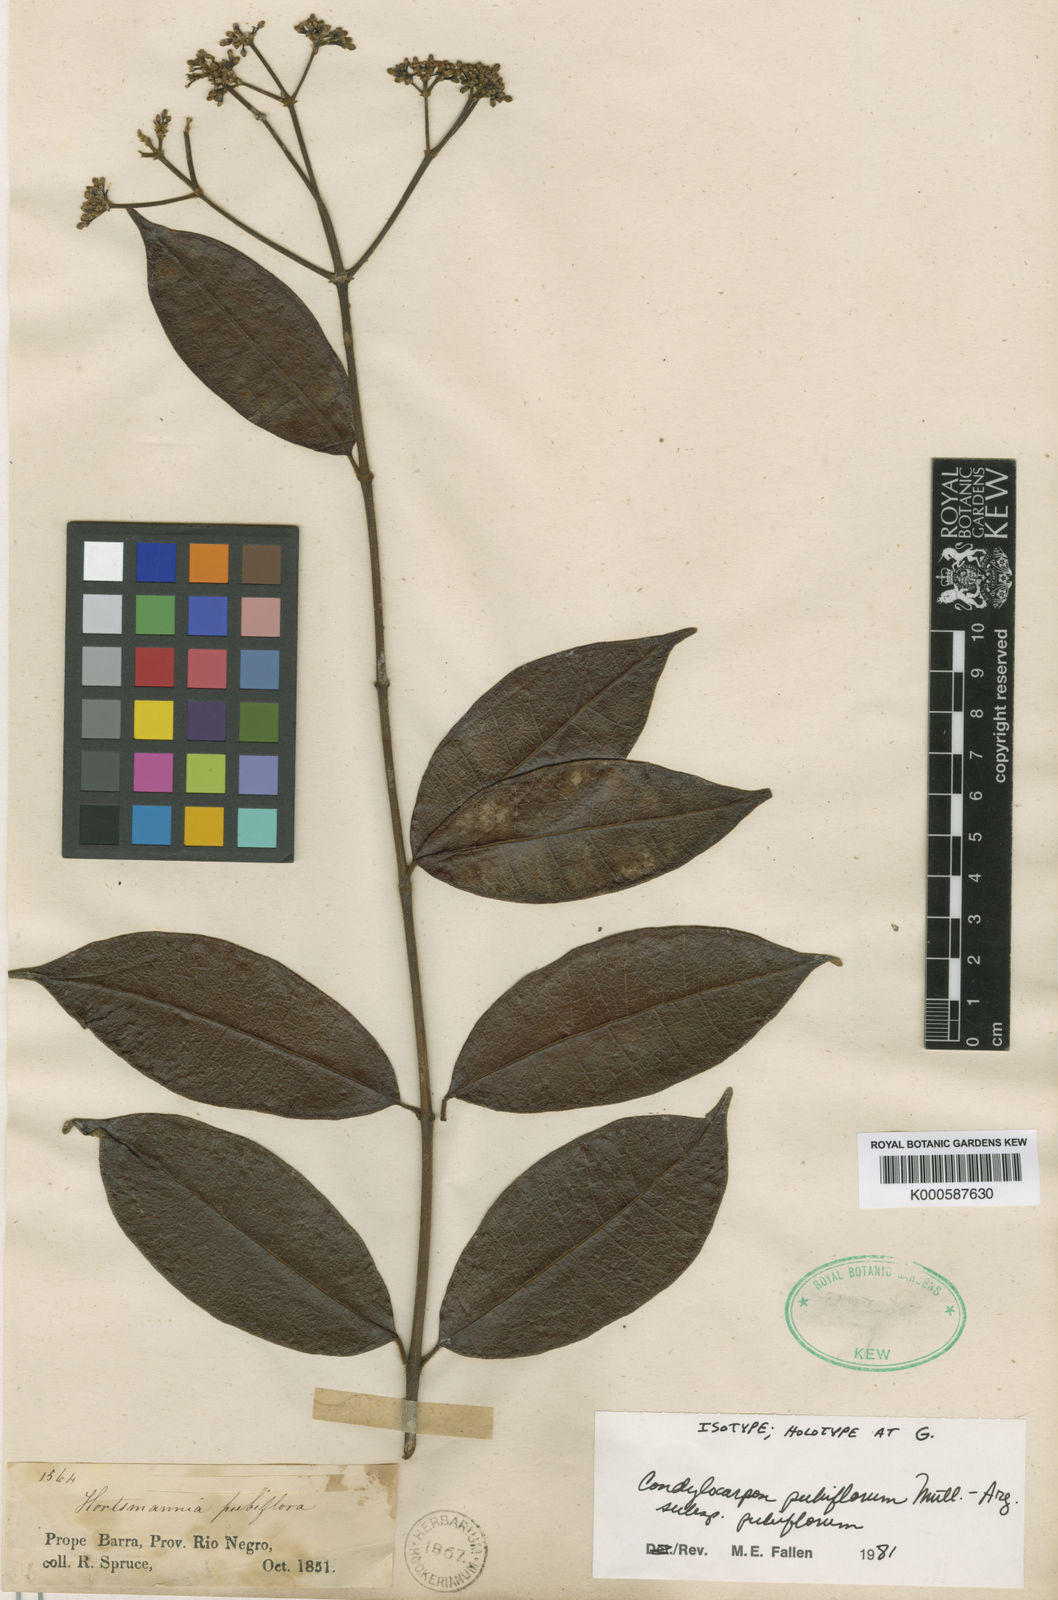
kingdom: Plantae
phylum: Tracheophyta
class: Magnoliopsida
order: Gentianales
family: Apocynaceae
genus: Condylocarpon
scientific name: Condylocarpon
